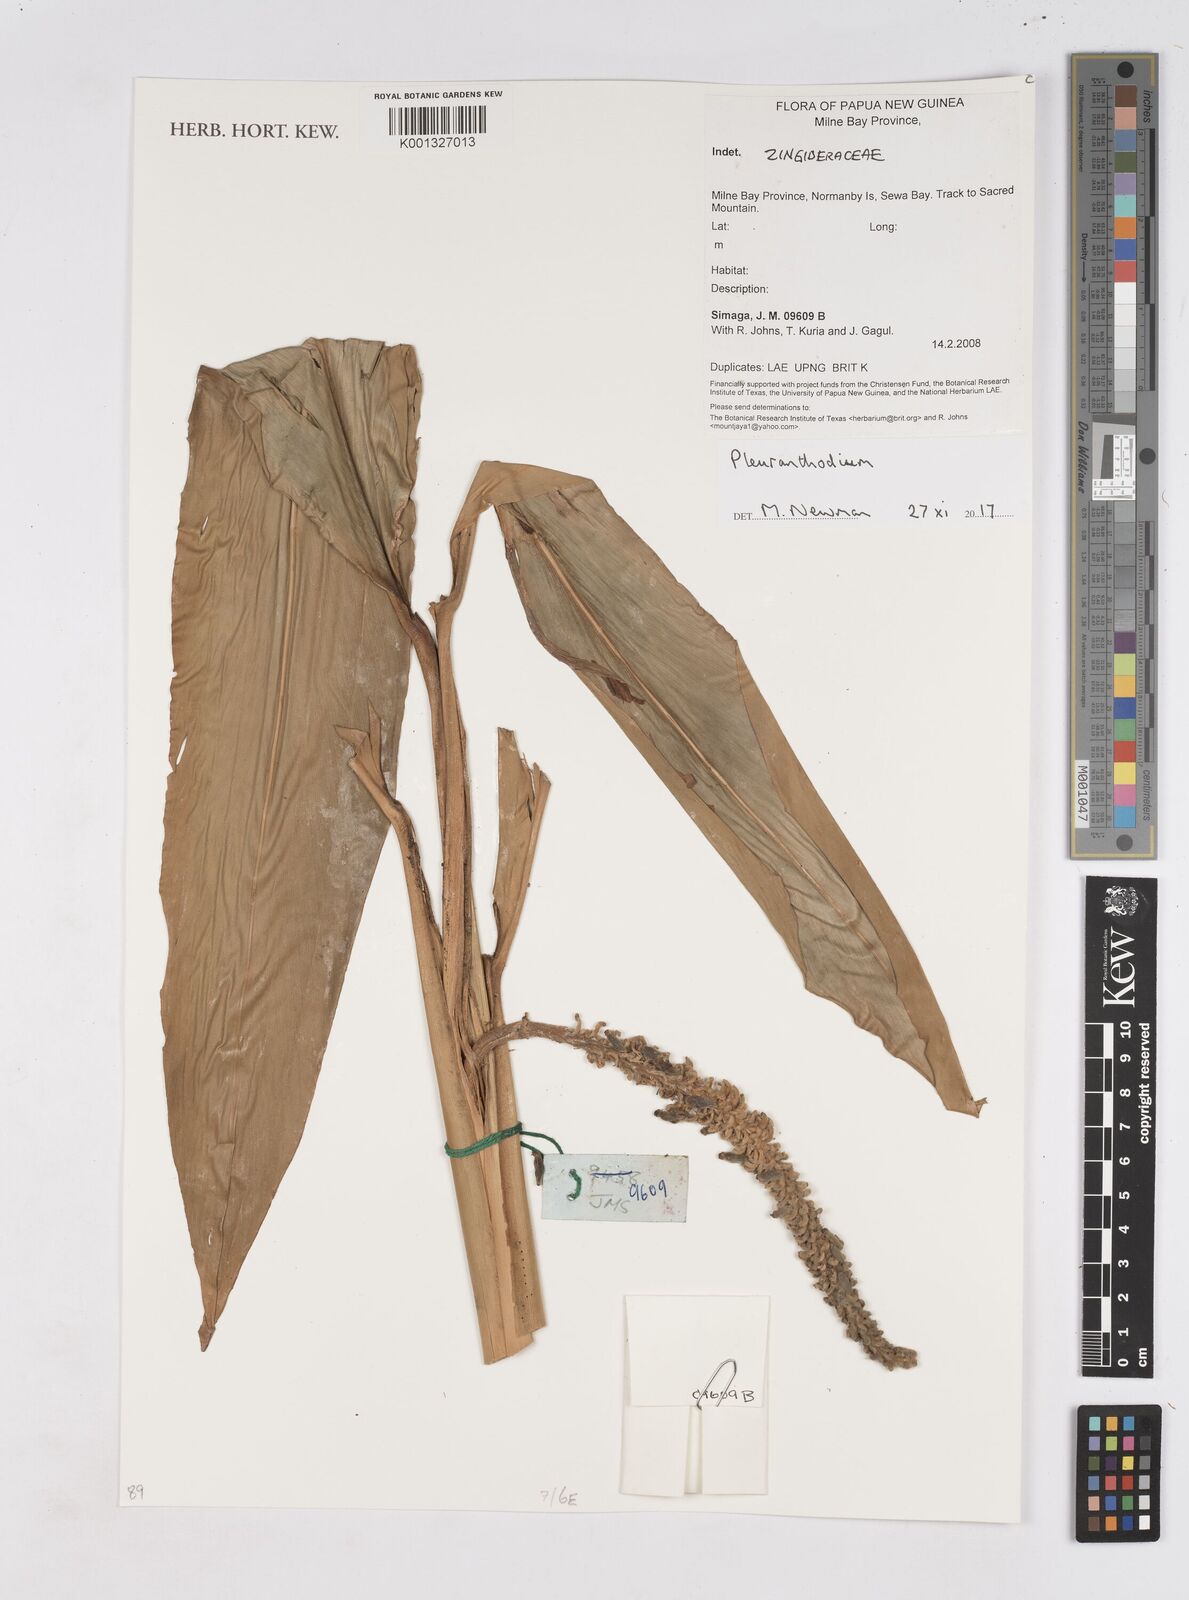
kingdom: Plantae
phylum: Tracheophyta
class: Liliopsida
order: Zingiberales
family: Zingiberaceae
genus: Pleuranthodium
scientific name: Pleuranthodium
